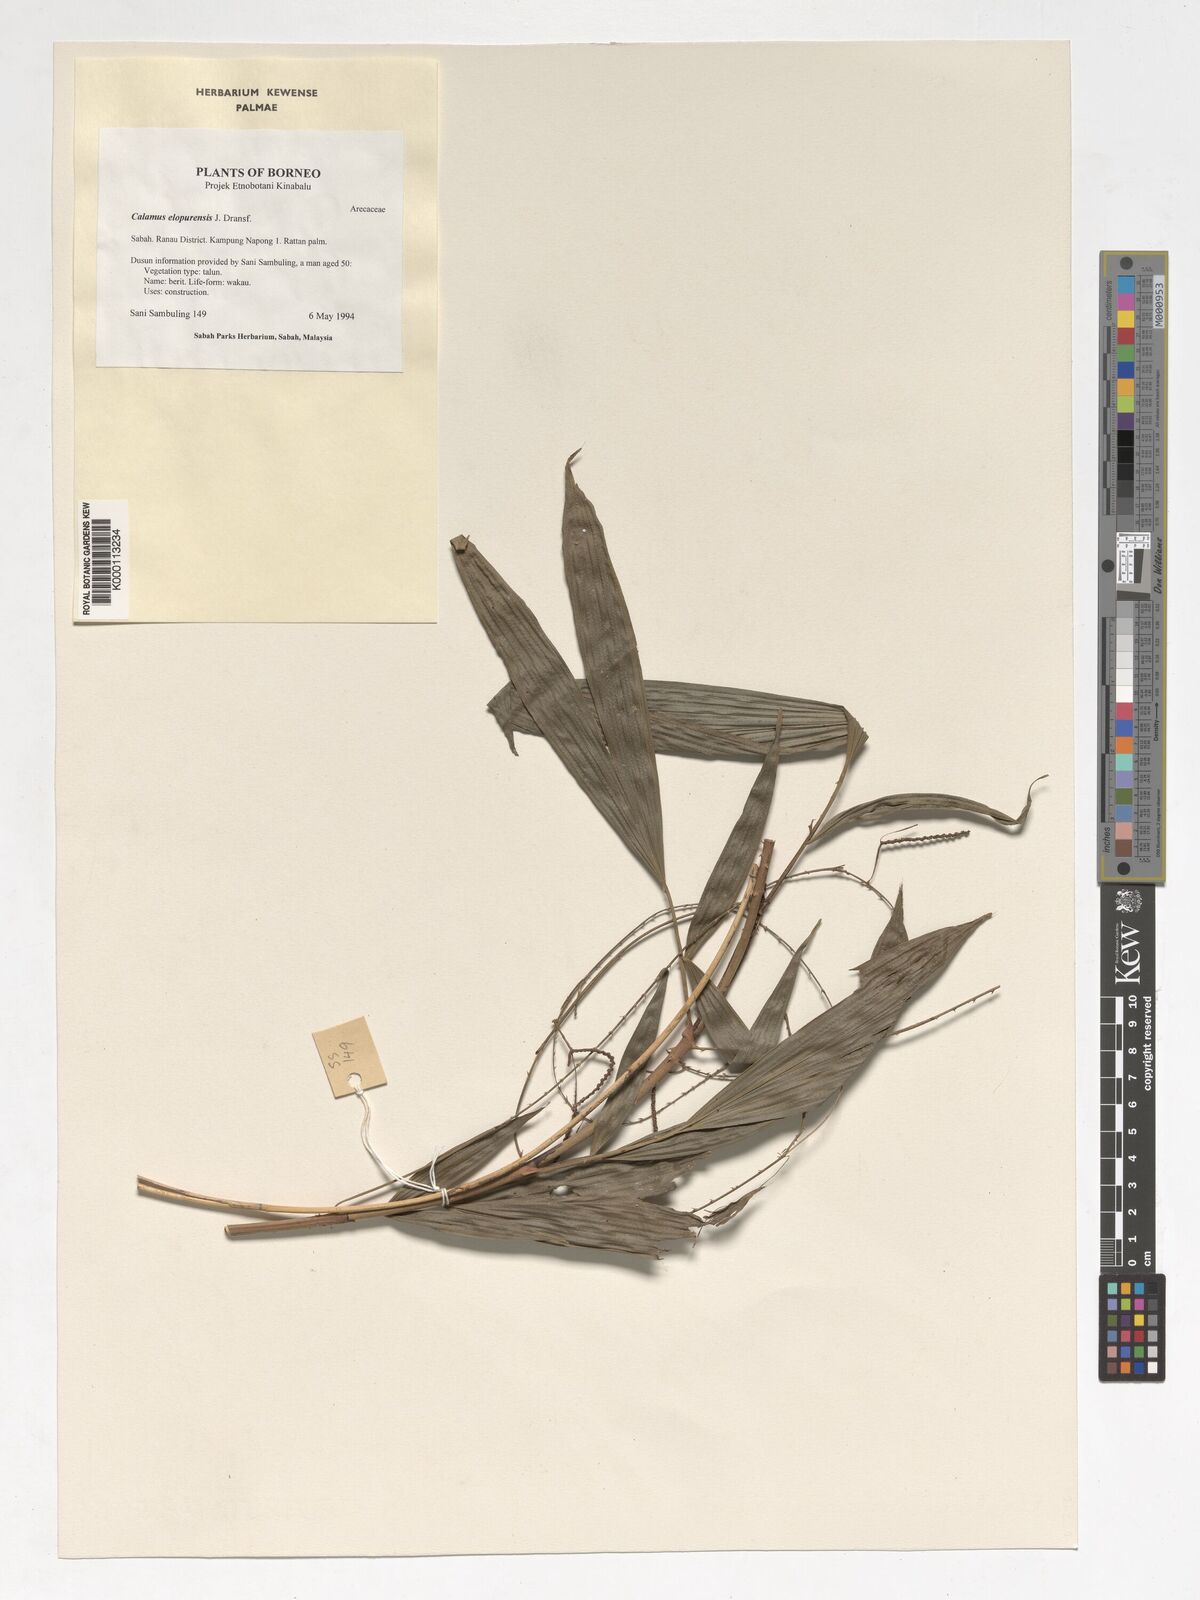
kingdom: Plantae
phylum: Tracheophyta
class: Liliopsida
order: Arecales
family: Arecaceae
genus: Calamus
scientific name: Calamus javensis
